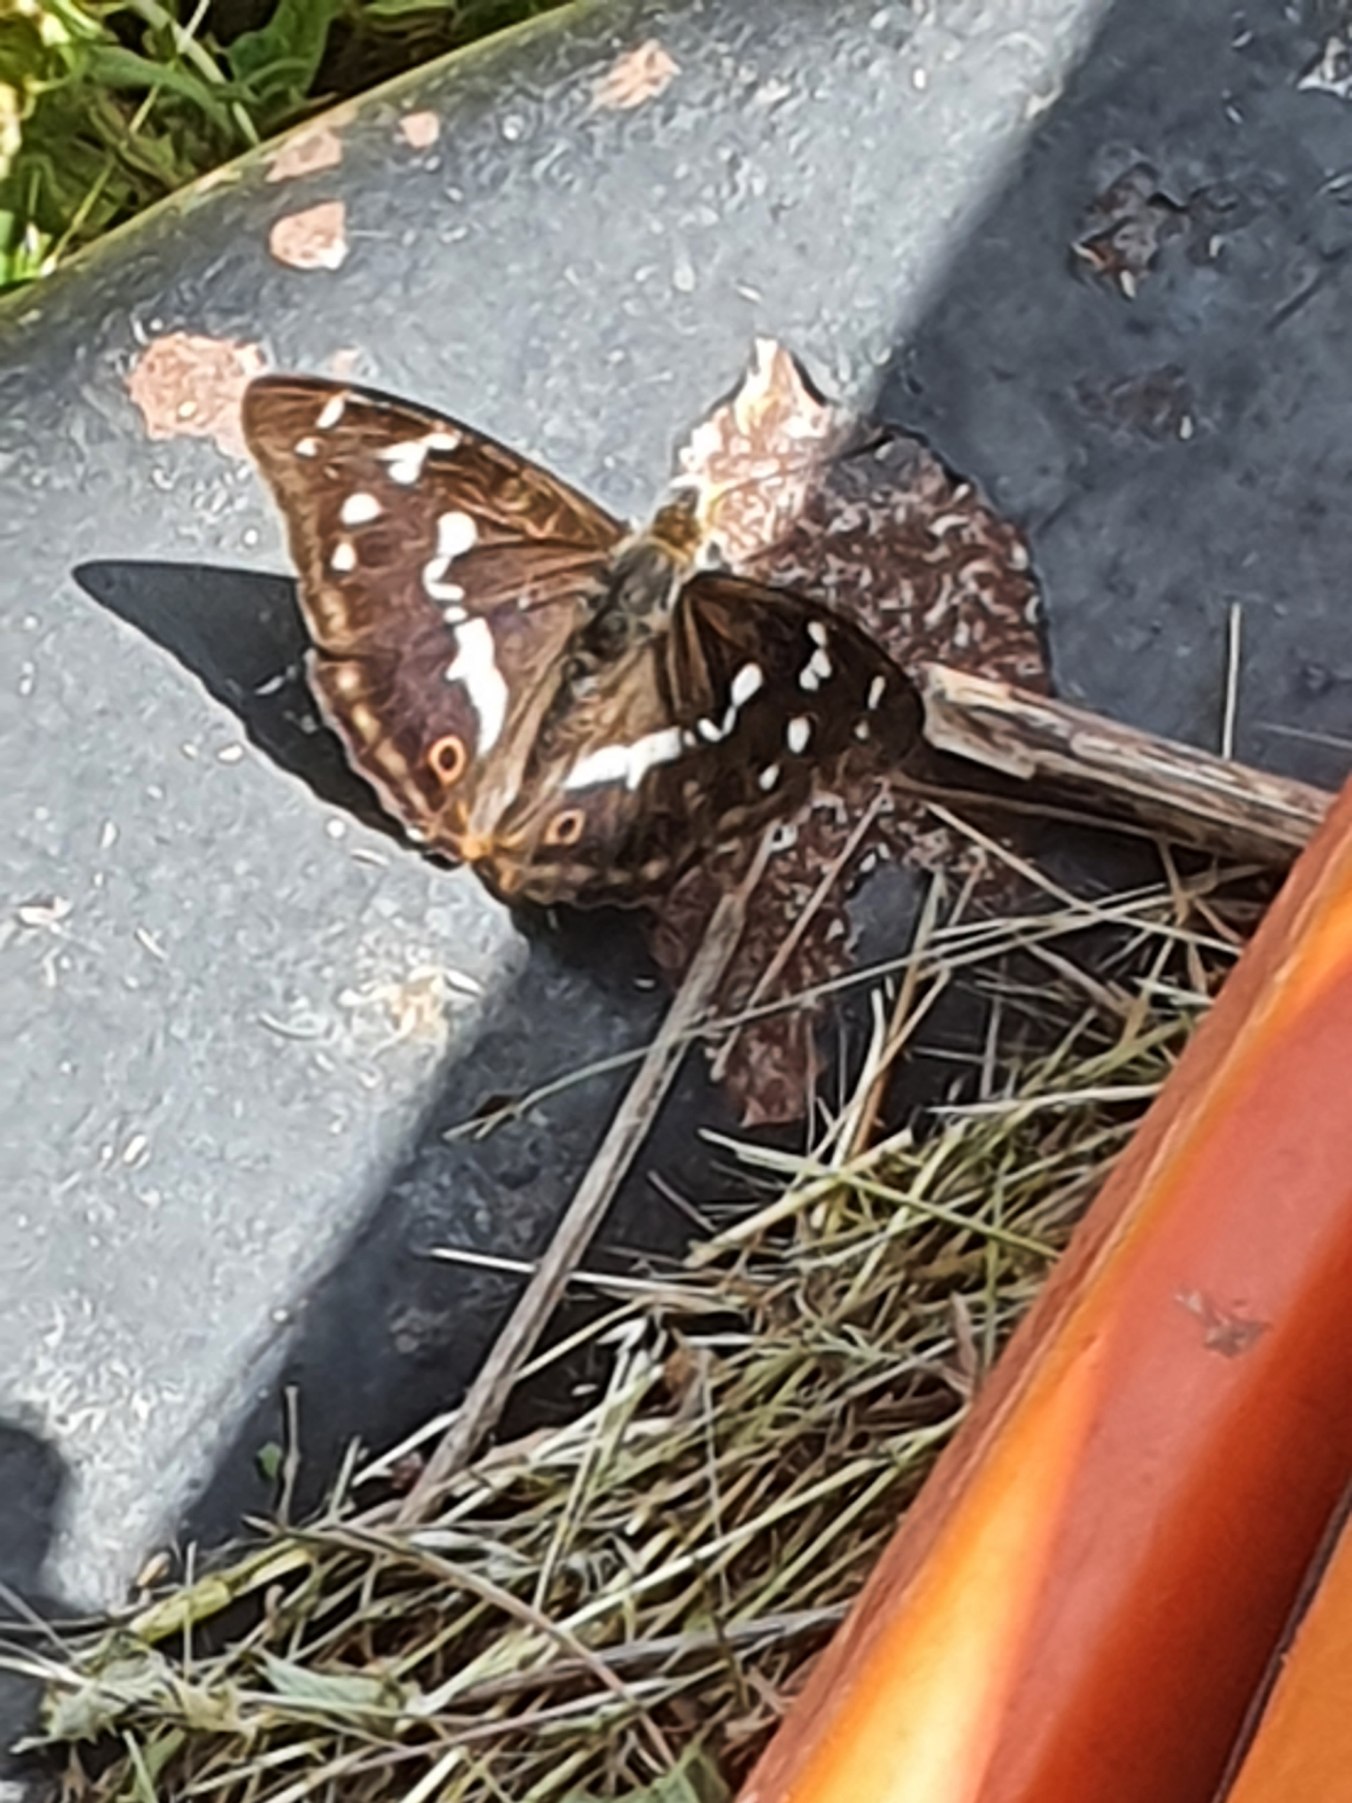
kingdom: Animalia
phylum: Arthropoda
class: Insecta
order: Lepidoptera
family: Nymphalidae
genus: Apatura
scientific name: Apatura iris
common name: Iris
